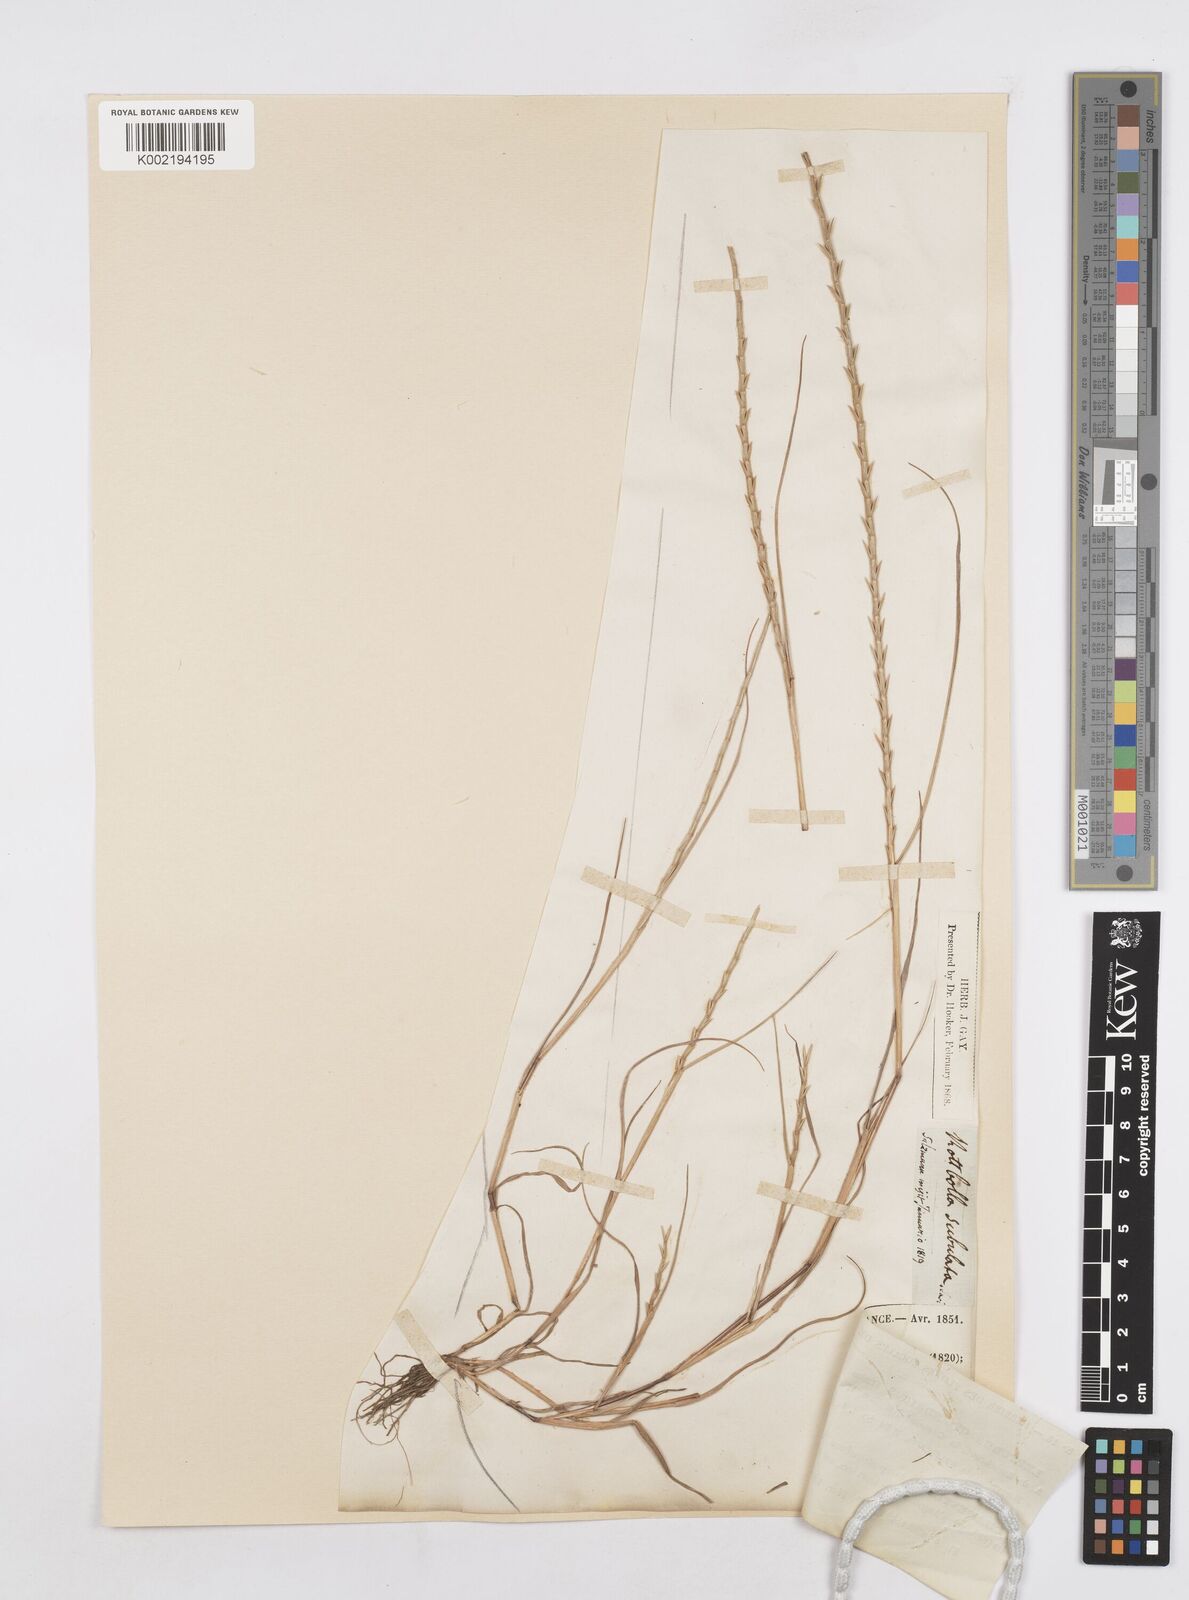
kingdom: Plantae
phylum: Tracheophyta
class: Liliopsida
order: Poales
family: Poaceae
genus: Parapholis
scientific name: Parapholis cylindrica
